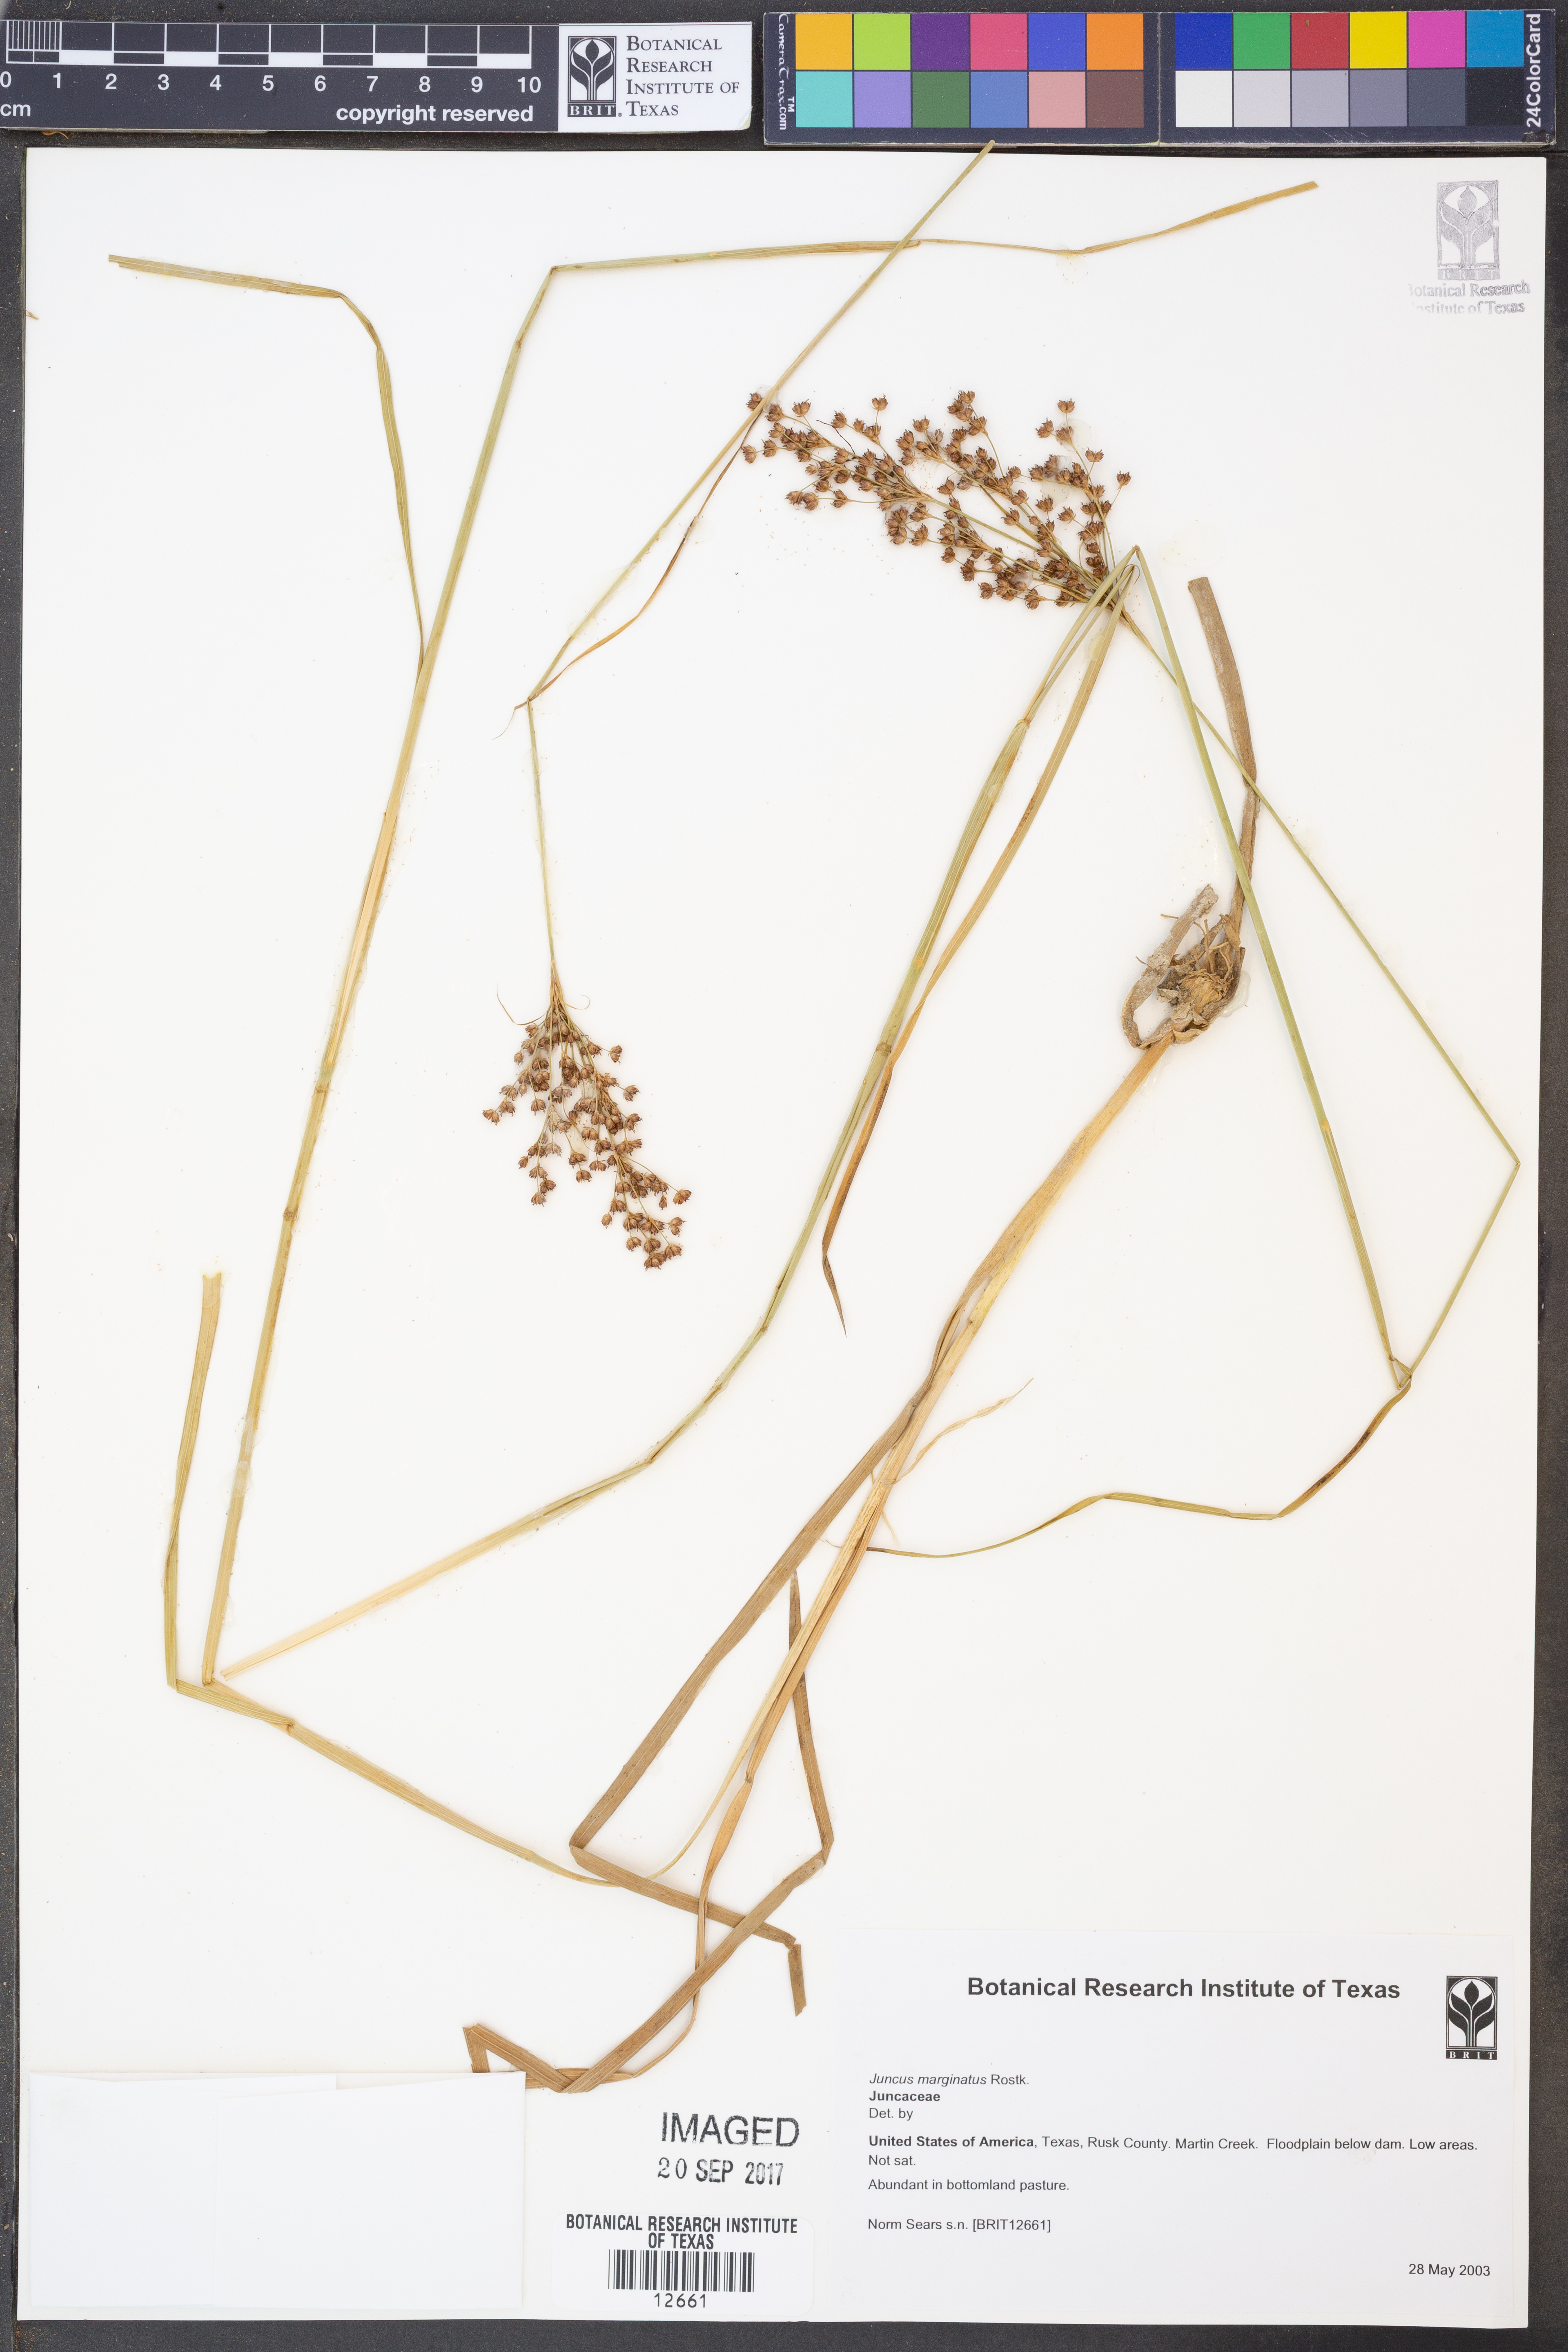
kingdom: Plantae
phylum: Tracheophyta
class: Liliopsida
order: Poales
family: Juncaceae
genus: Juncus
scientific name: Juncus marginatus
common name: Grass-leaf rush
